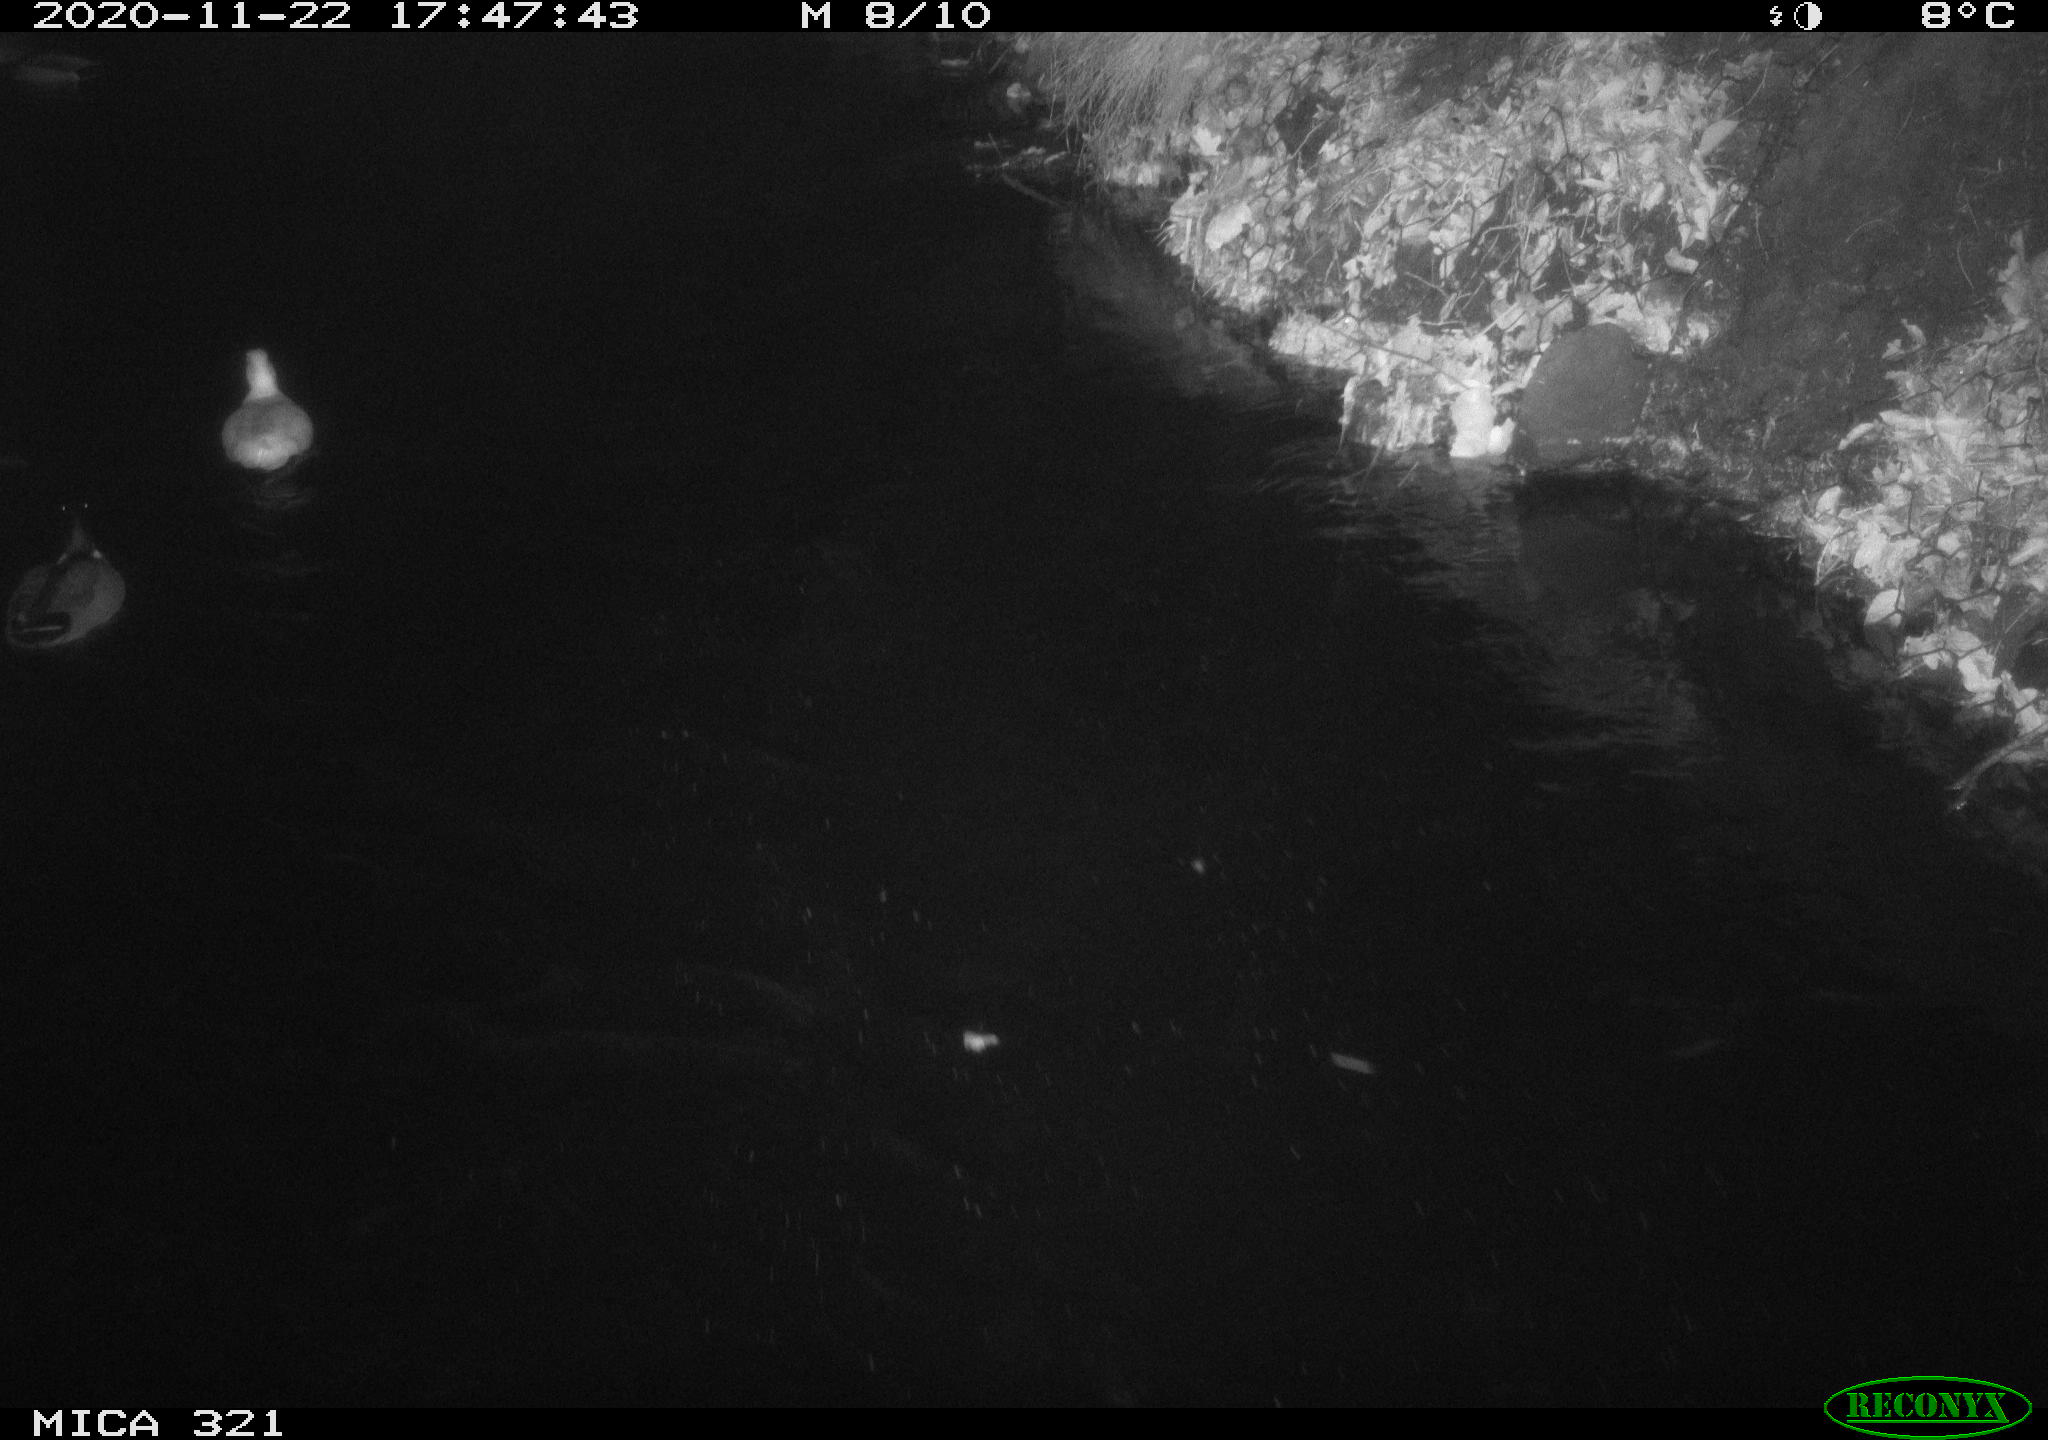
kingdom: Animalia
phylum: Chordata
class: Aves
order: Anseriformes
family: Anatidae
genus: Anas
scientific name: Anas platyrhynchos
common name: Mallard
